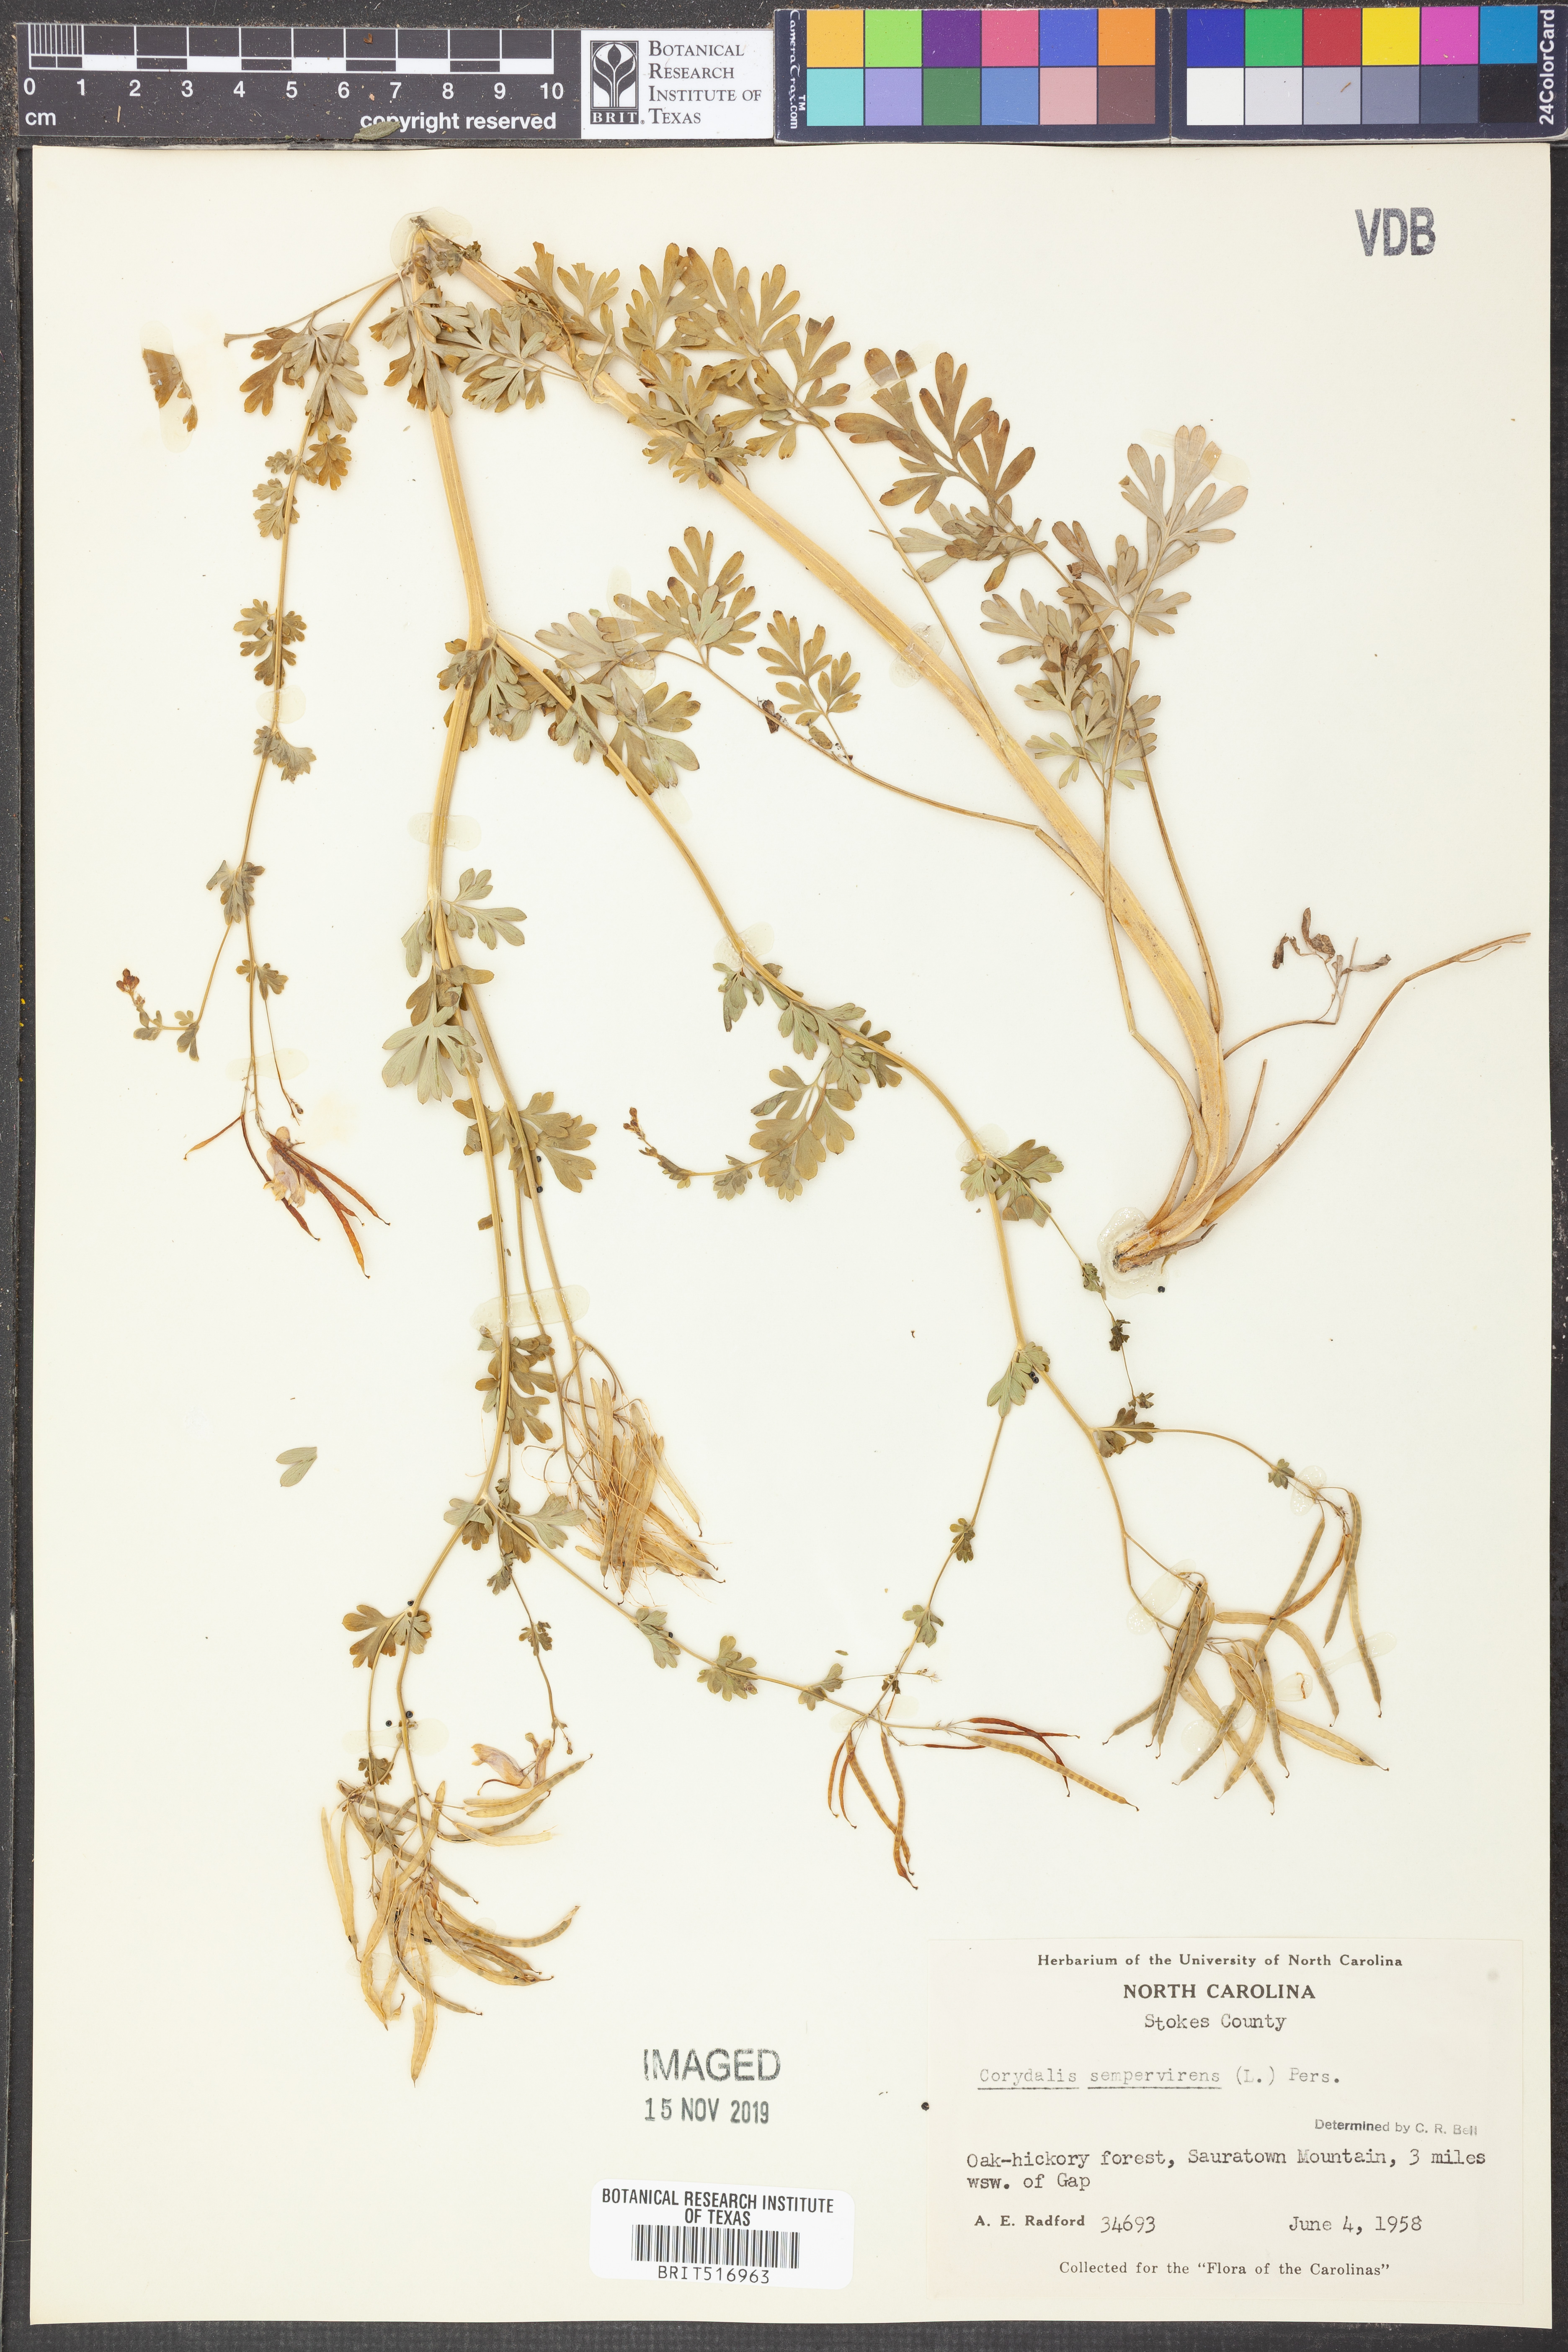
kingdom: Plantae
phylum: Tracheophyta
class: Magnoliopsida
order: Ranunculales
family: Papaveraceae
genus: Capnoides
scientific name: Capnoides sempervirens
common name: Rock harlequin
